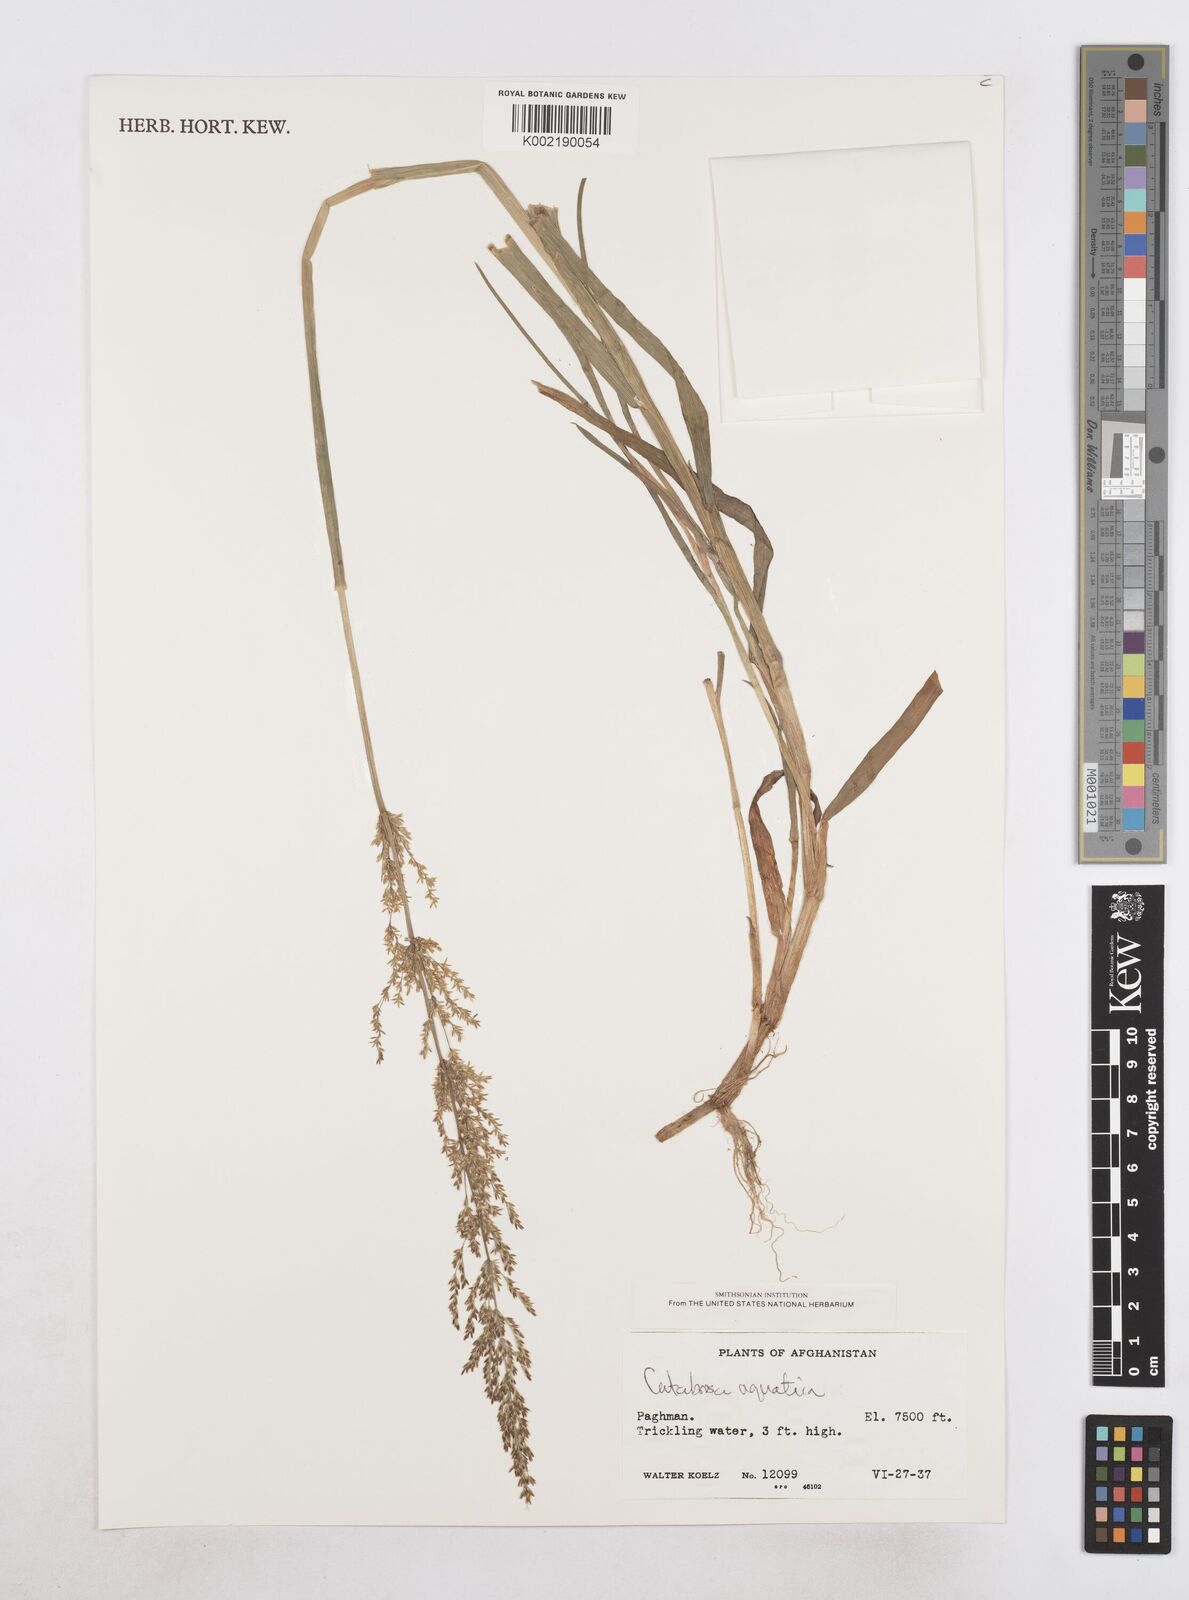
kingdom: Plantae
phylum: Tracheophyta
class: Liliopsida
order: Poales
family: Poaceae
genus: Catabrosa
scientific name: Catabrosa aquatica
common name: Whorl-grass
